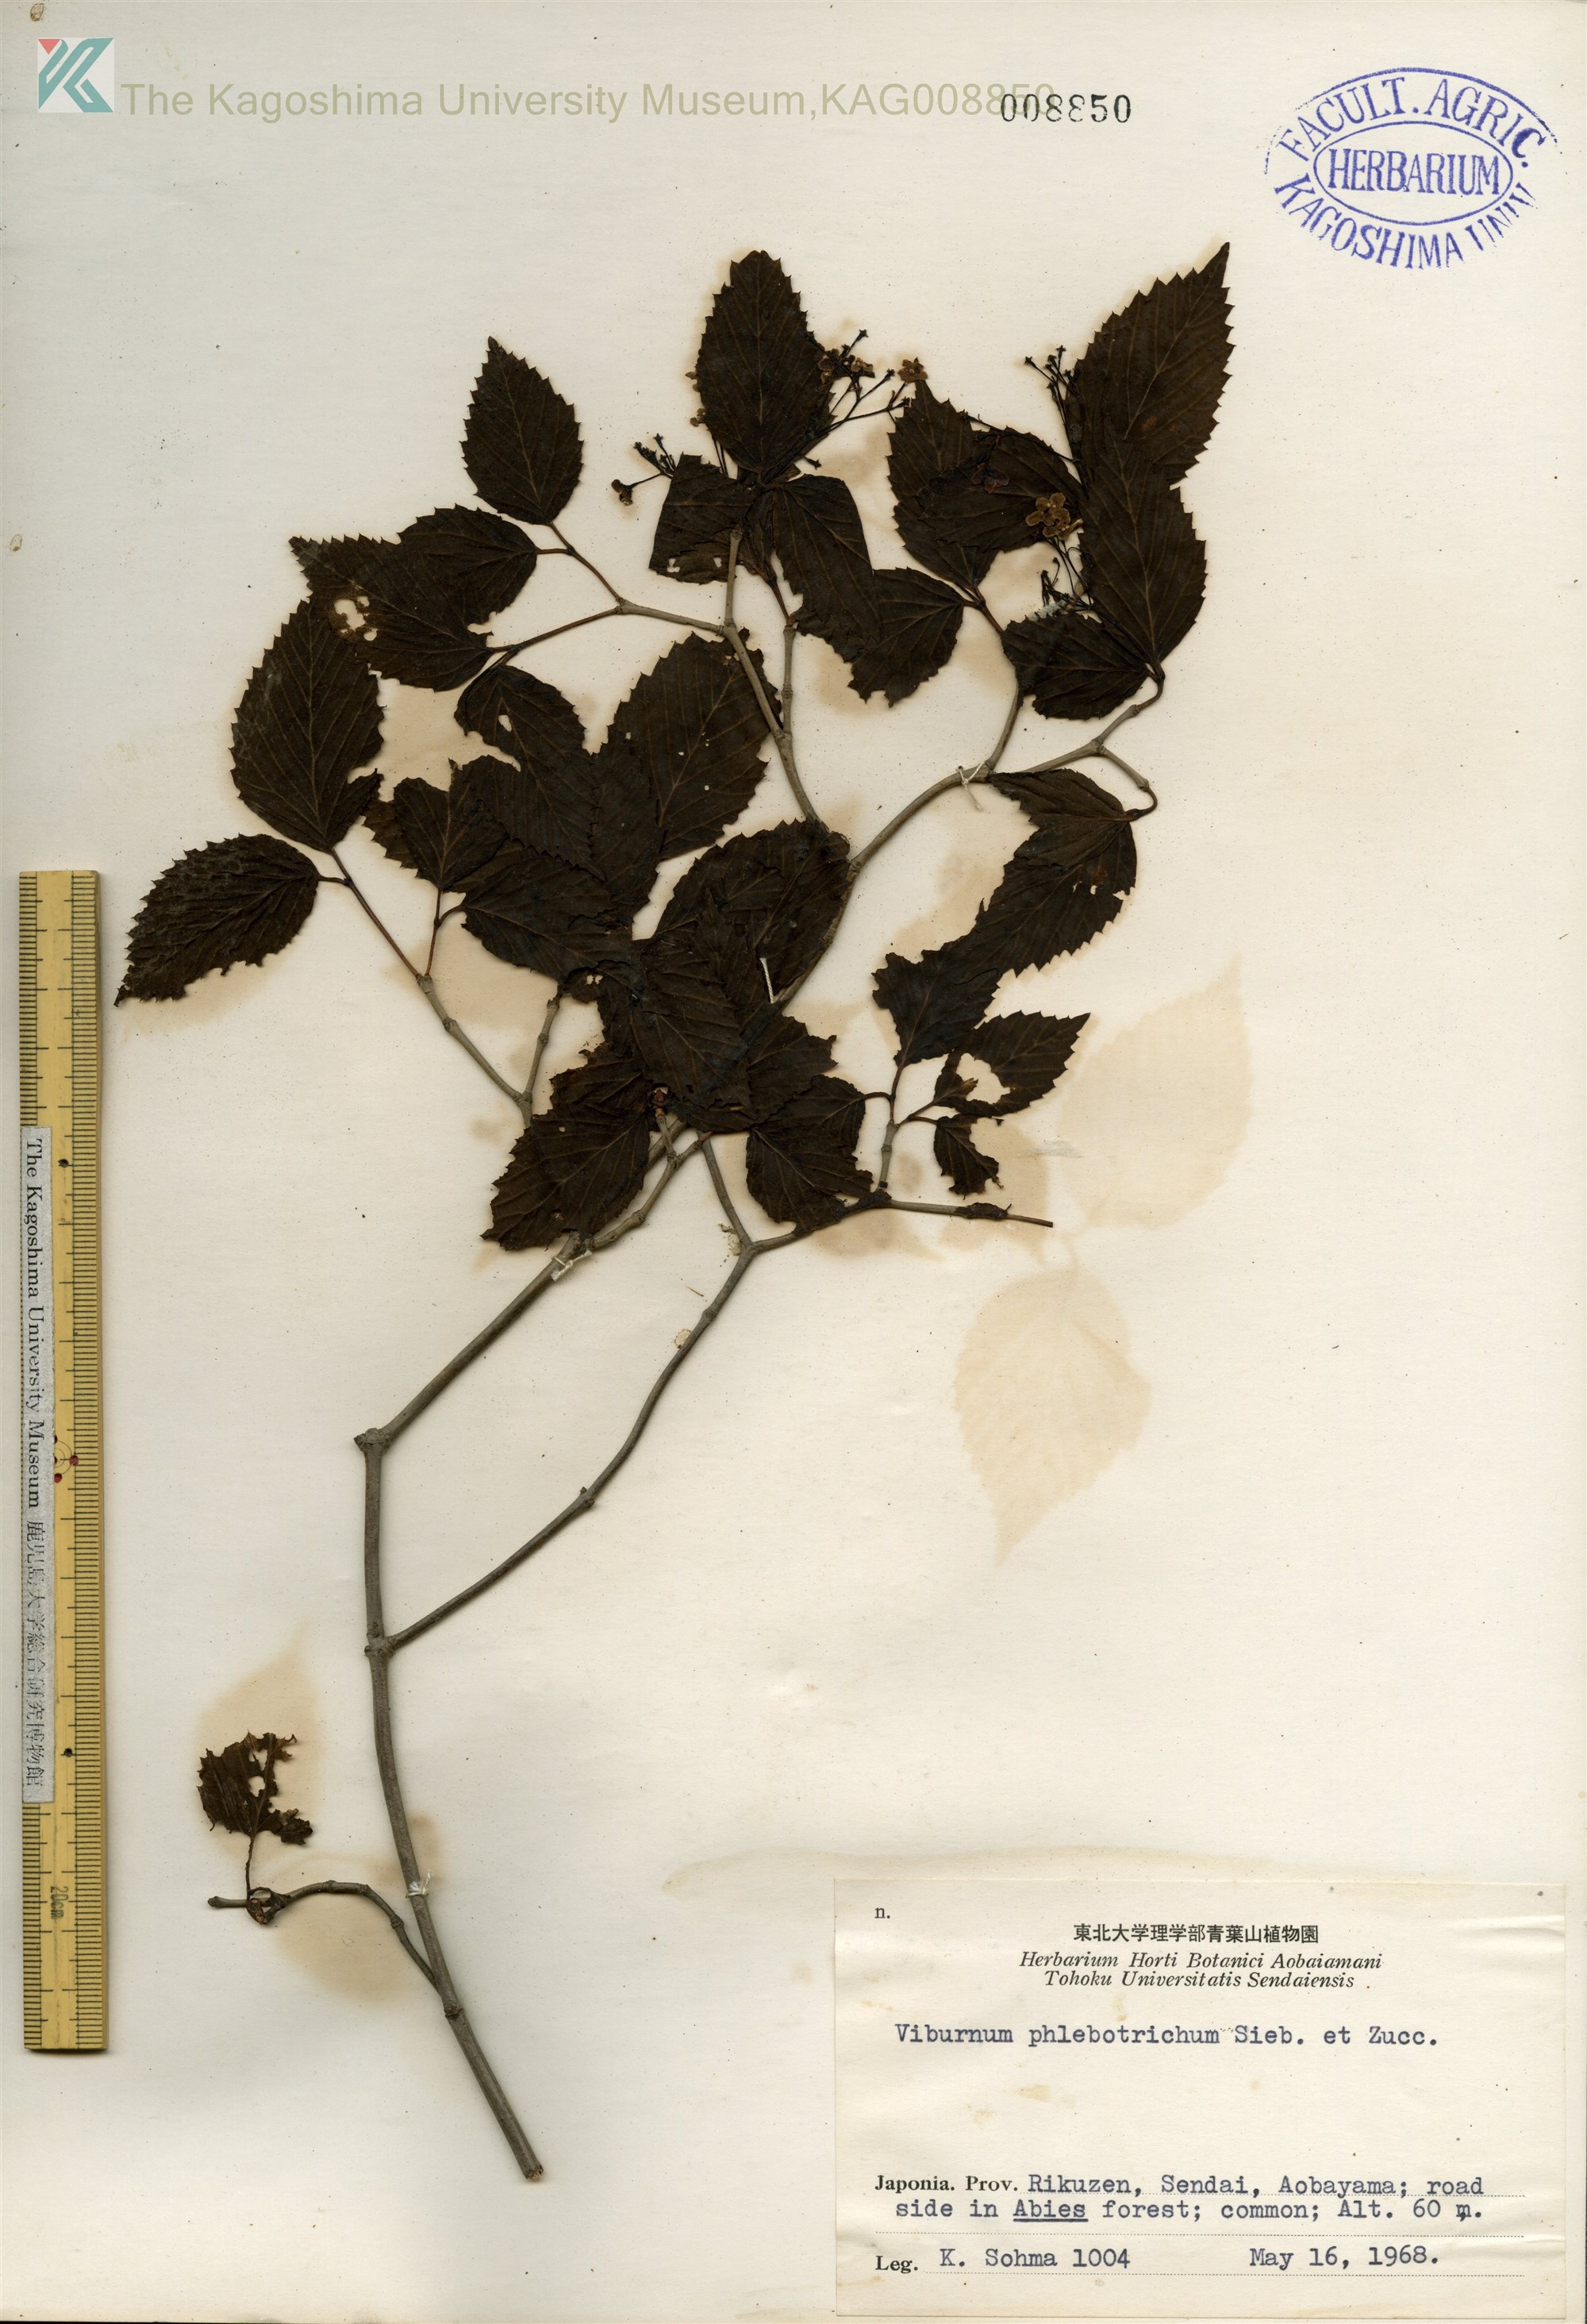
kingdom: Plantae
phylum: Tracheophyta
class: Magnoliopsida
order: Dipsacales
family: Viburnaceae
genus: Viburnum
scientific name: Viburnum phlebotrichum
